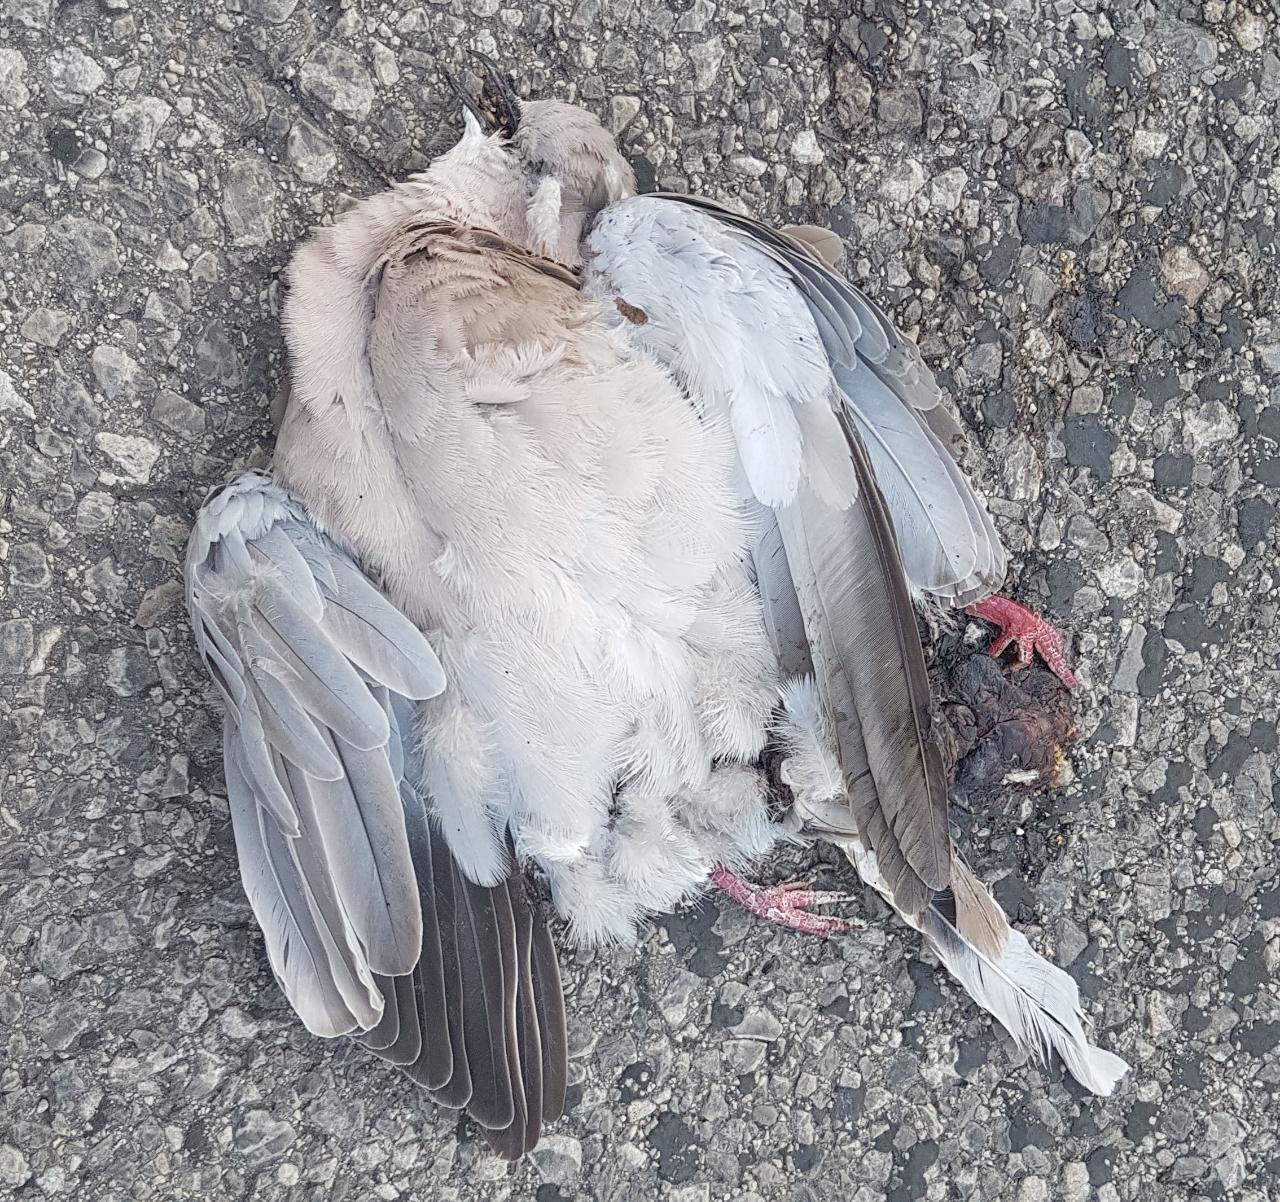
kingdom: Animalia
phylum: Chordata
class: Aves
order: Columbiformes
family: Columbidae
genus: Streptopelia
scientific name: Streptopelia decaocto
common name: Eurasian collared dove
